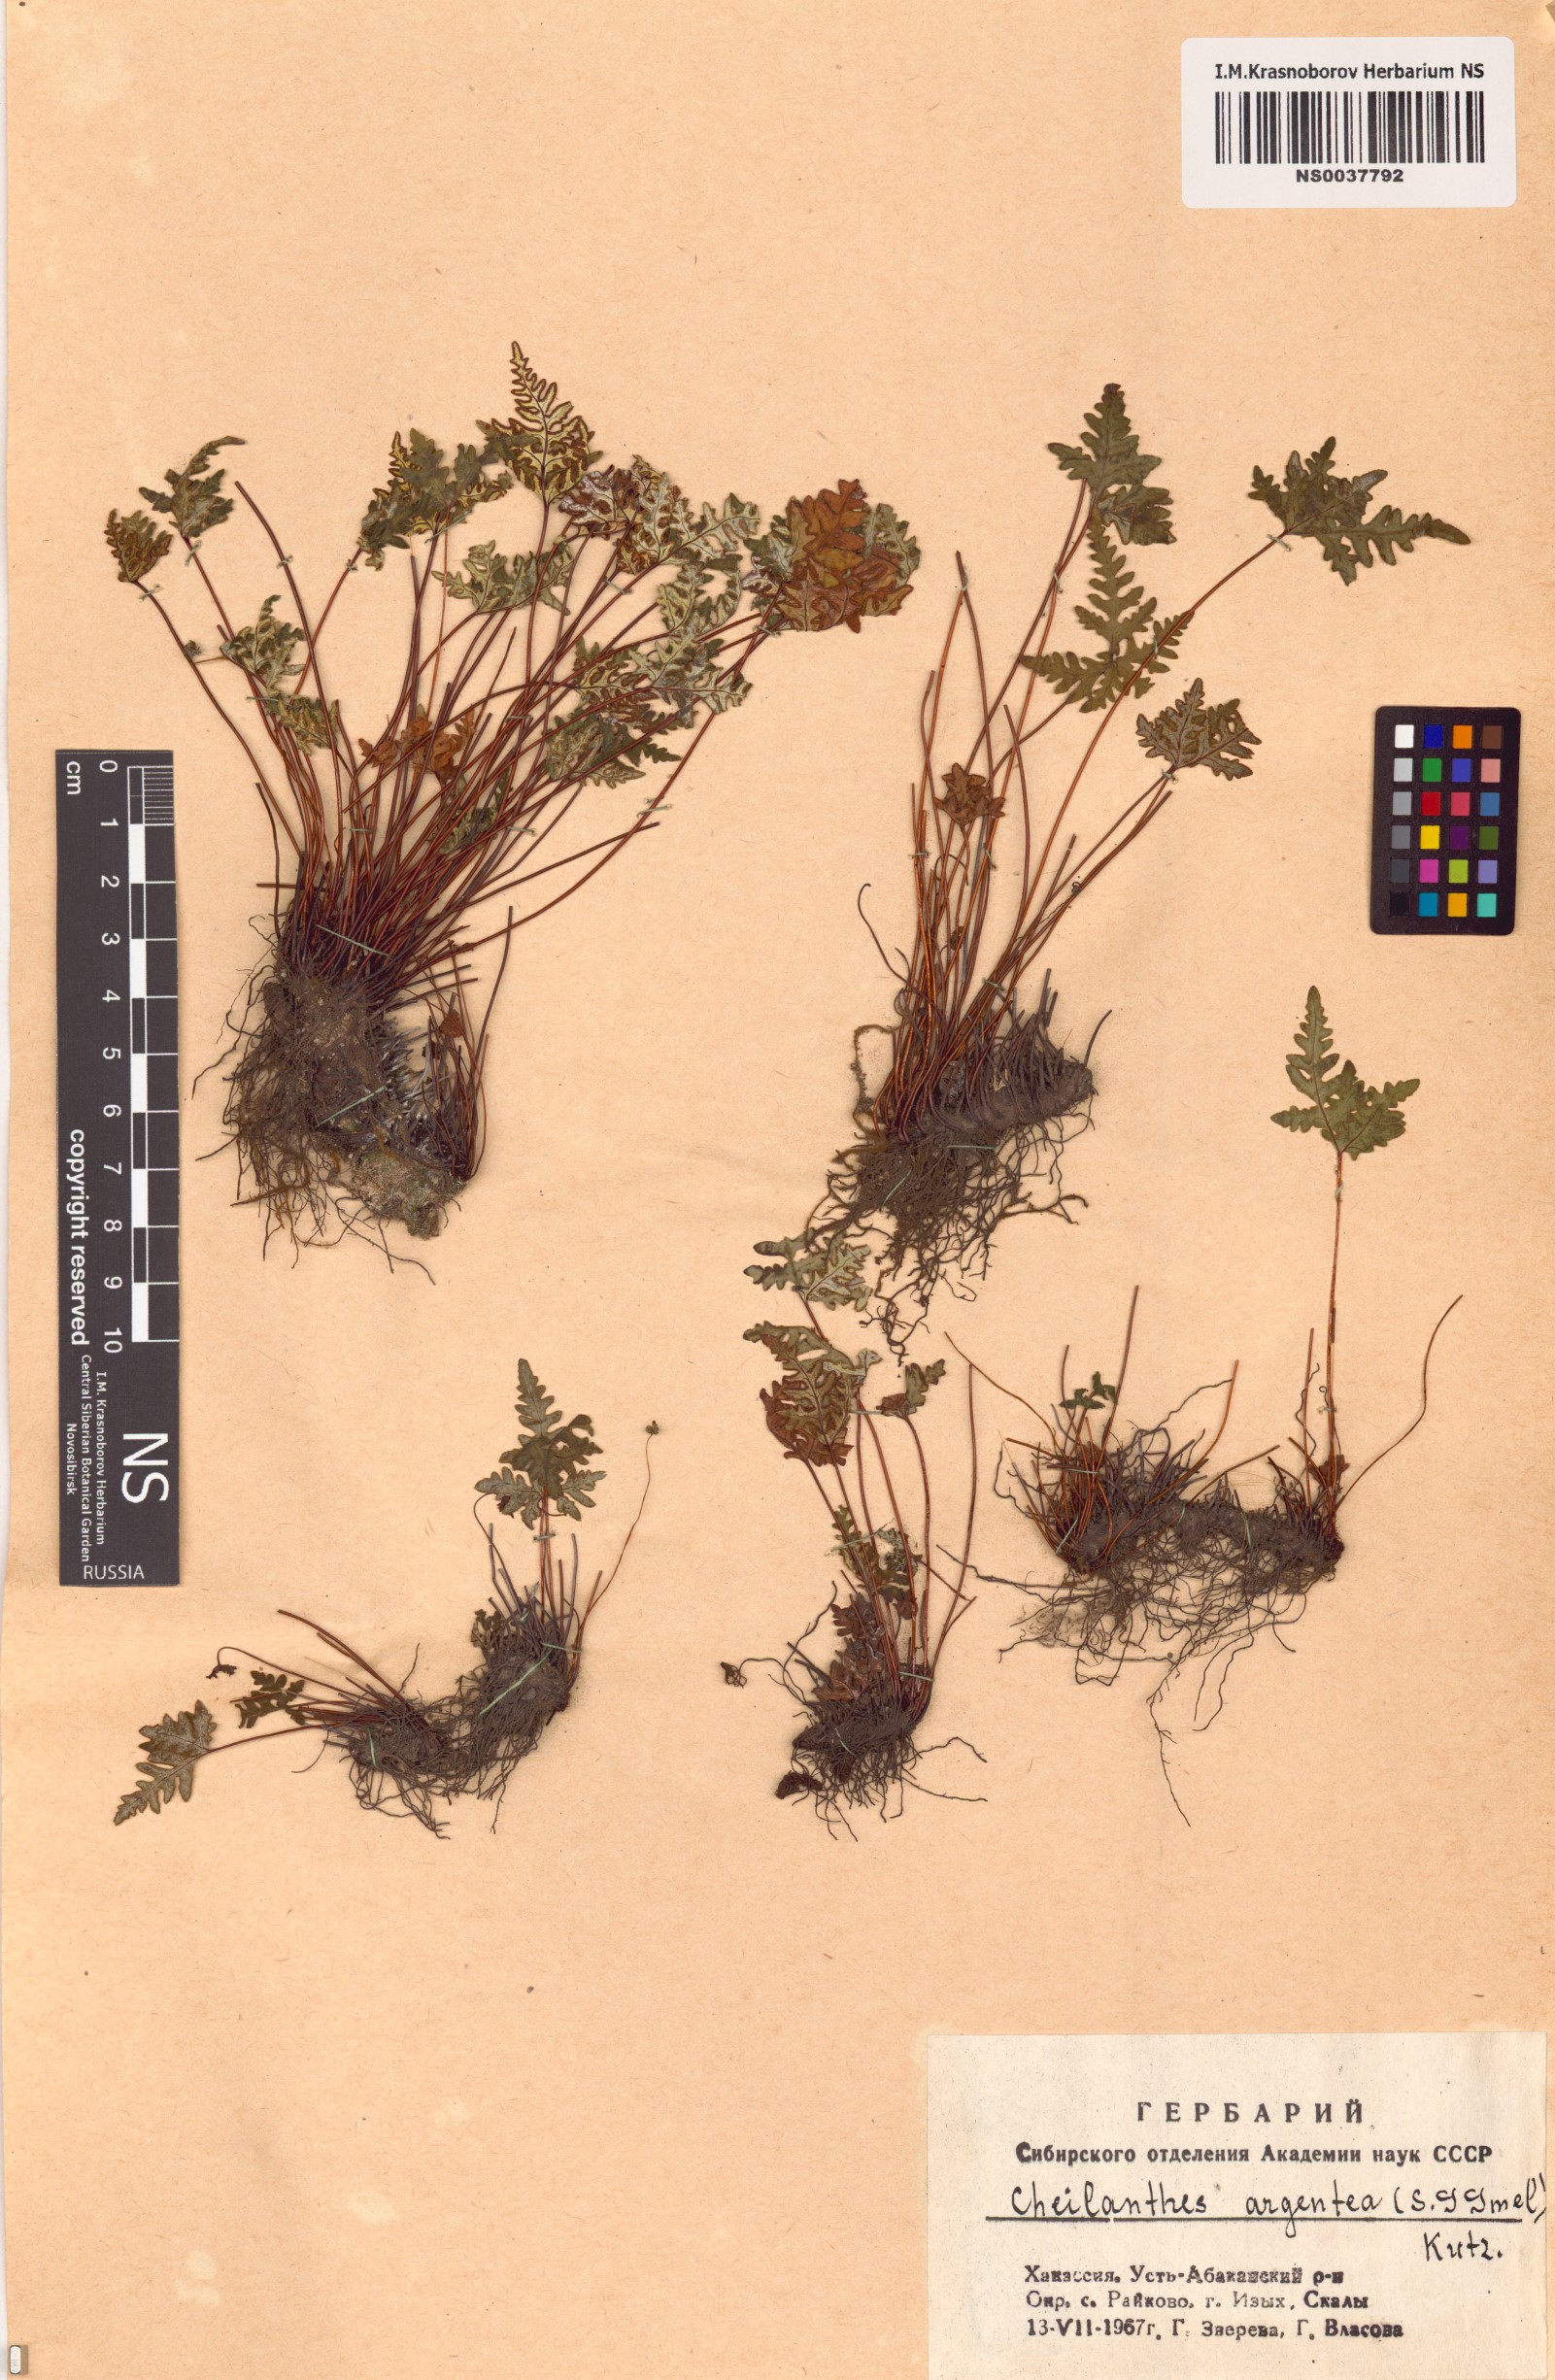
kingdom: Plantae
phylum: Tracheophyta
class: Polypodiopsida
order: Polypodiales
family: Pteridaceae
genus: Aleuritopteris
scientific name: Aleuritopteris argentea
